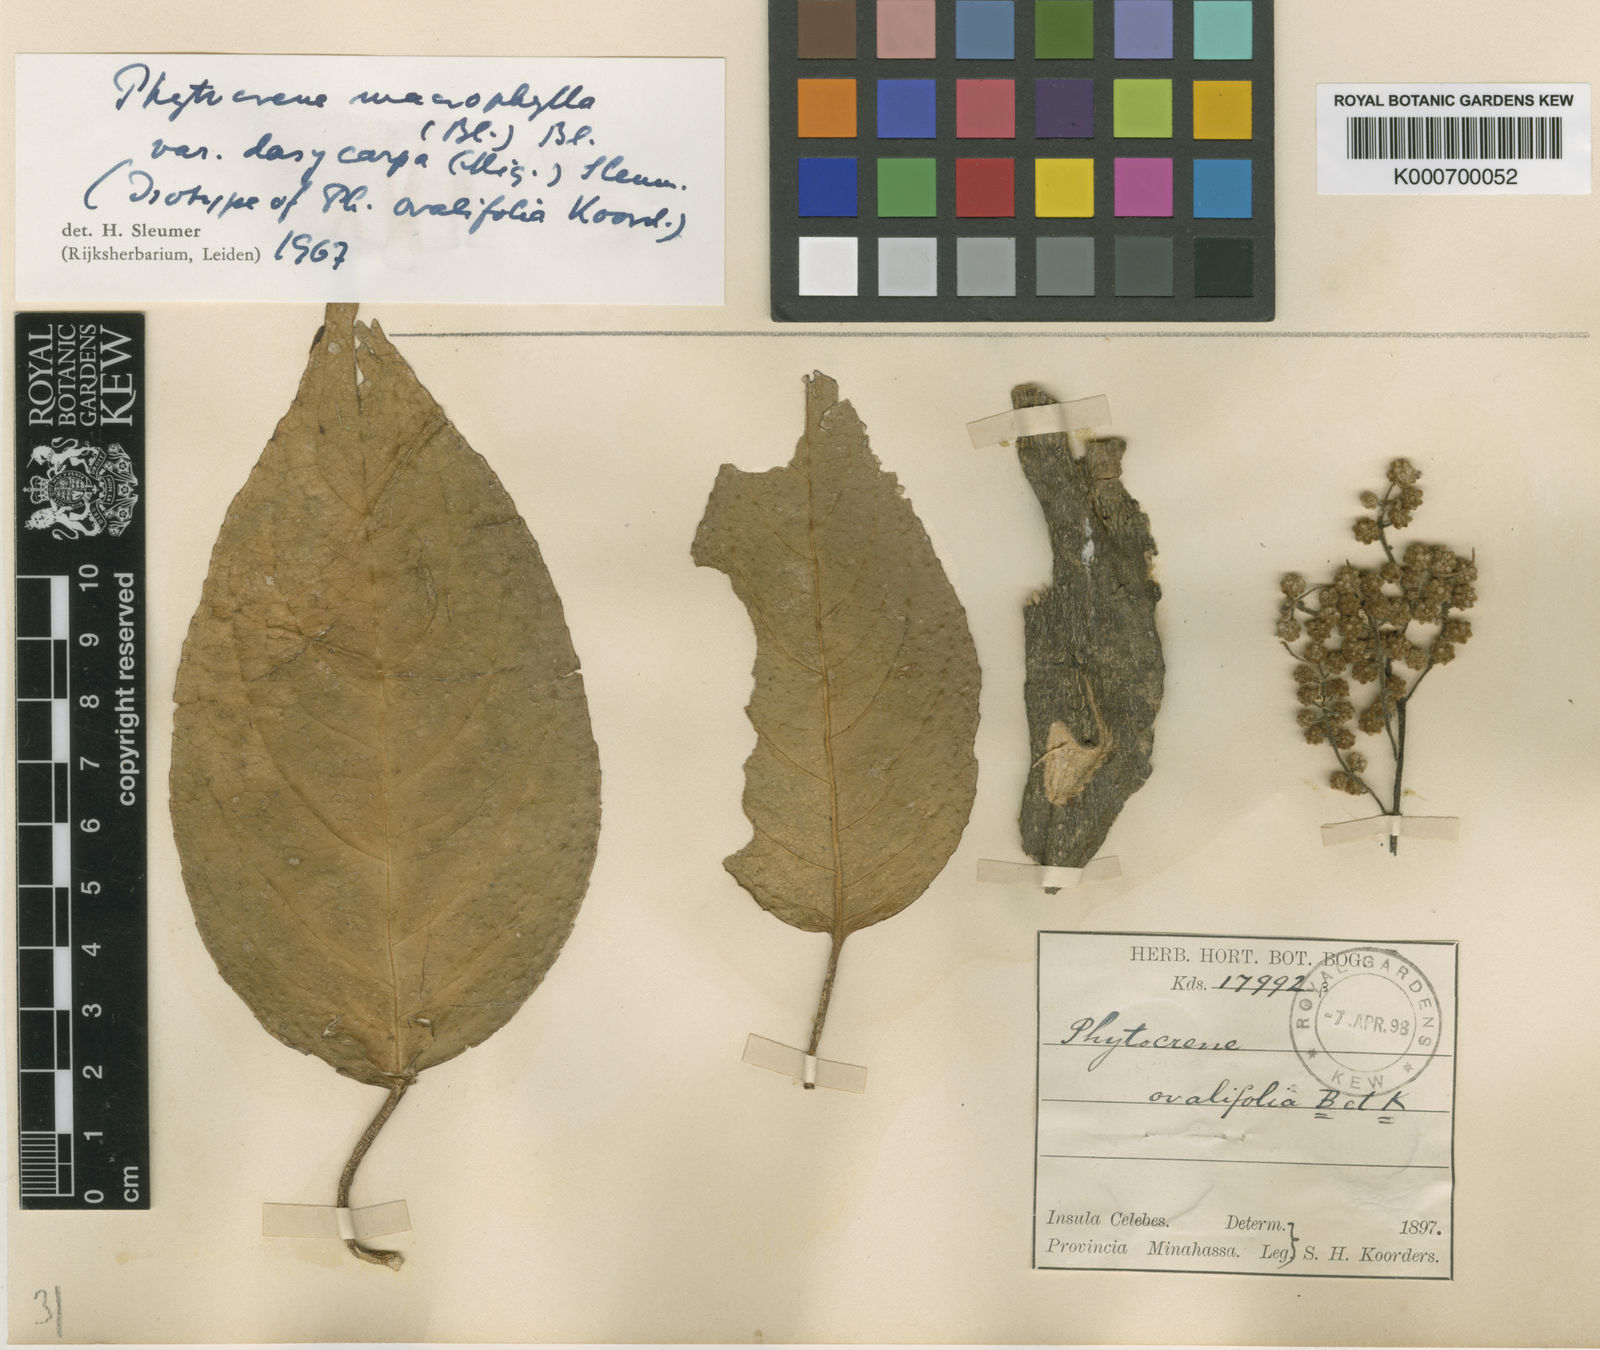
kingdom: Plantae
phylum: Tracheophyta
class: Magnoliopsida
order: Icacinales
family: Icacinaceae
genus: Phytocrene
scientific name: Phytocrene macrophylla
